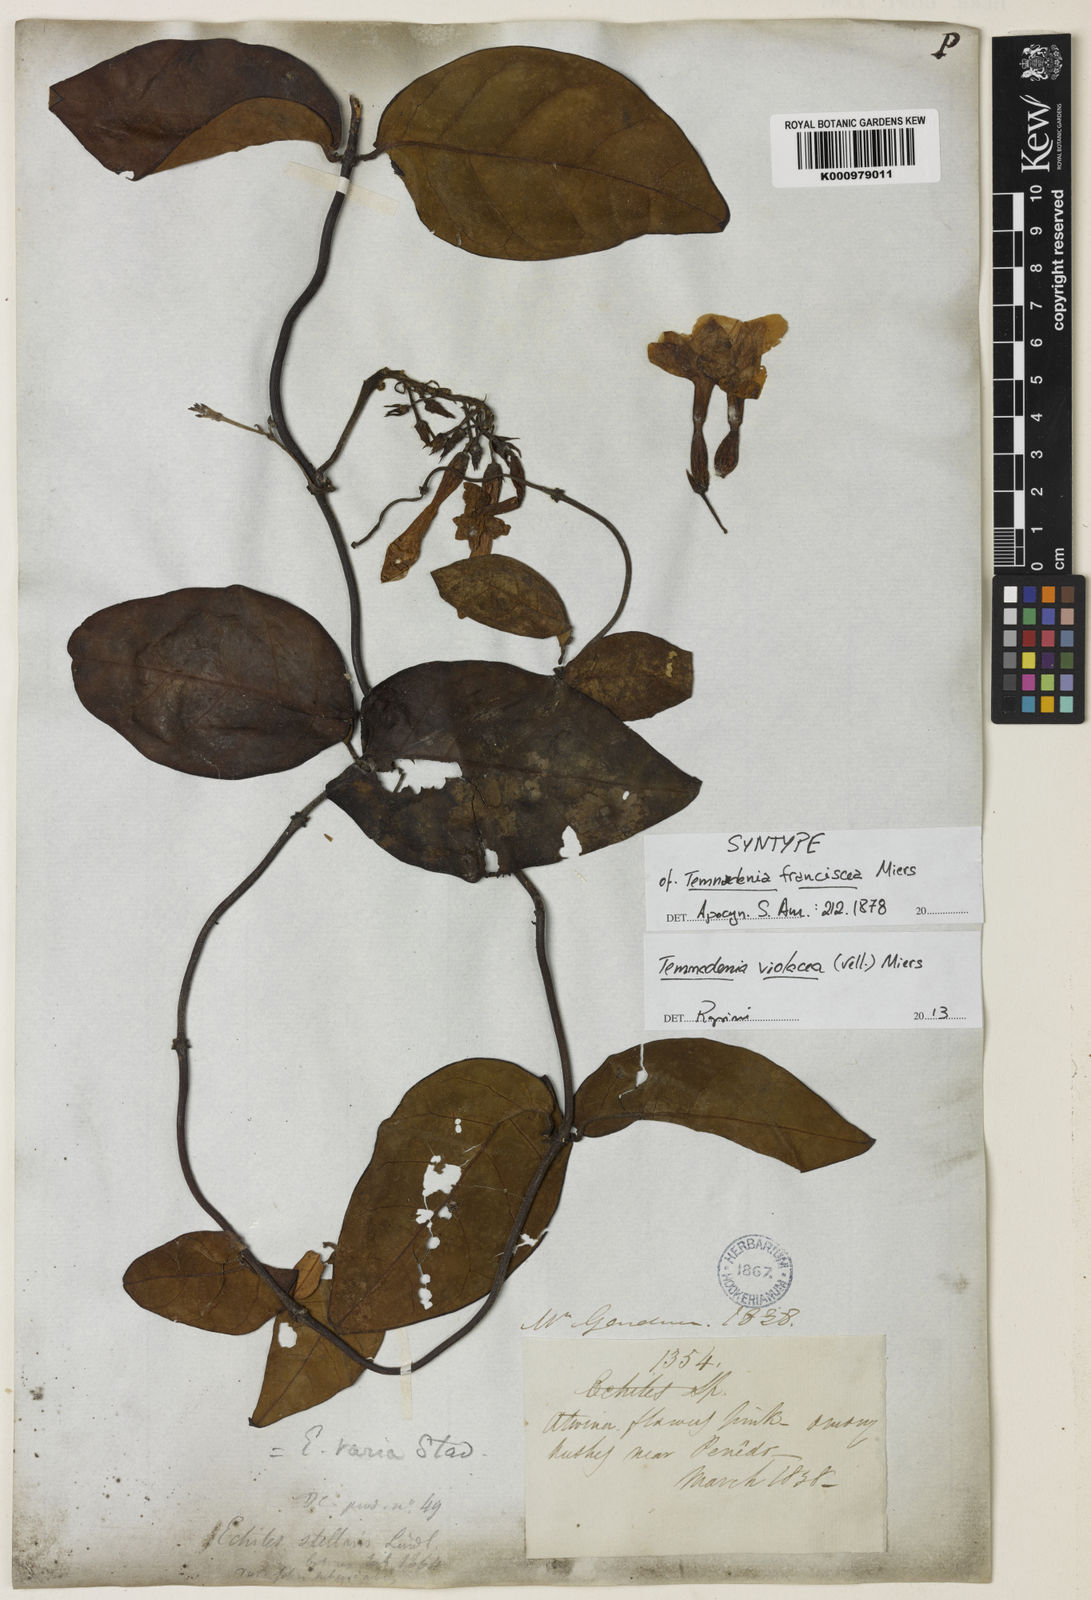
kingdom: Plantae
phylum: Tracheophyta
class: Magnoliopsida
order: Gentianales
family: Apocynaceae
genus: Temnadenia
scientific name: Temnadenia violacea
